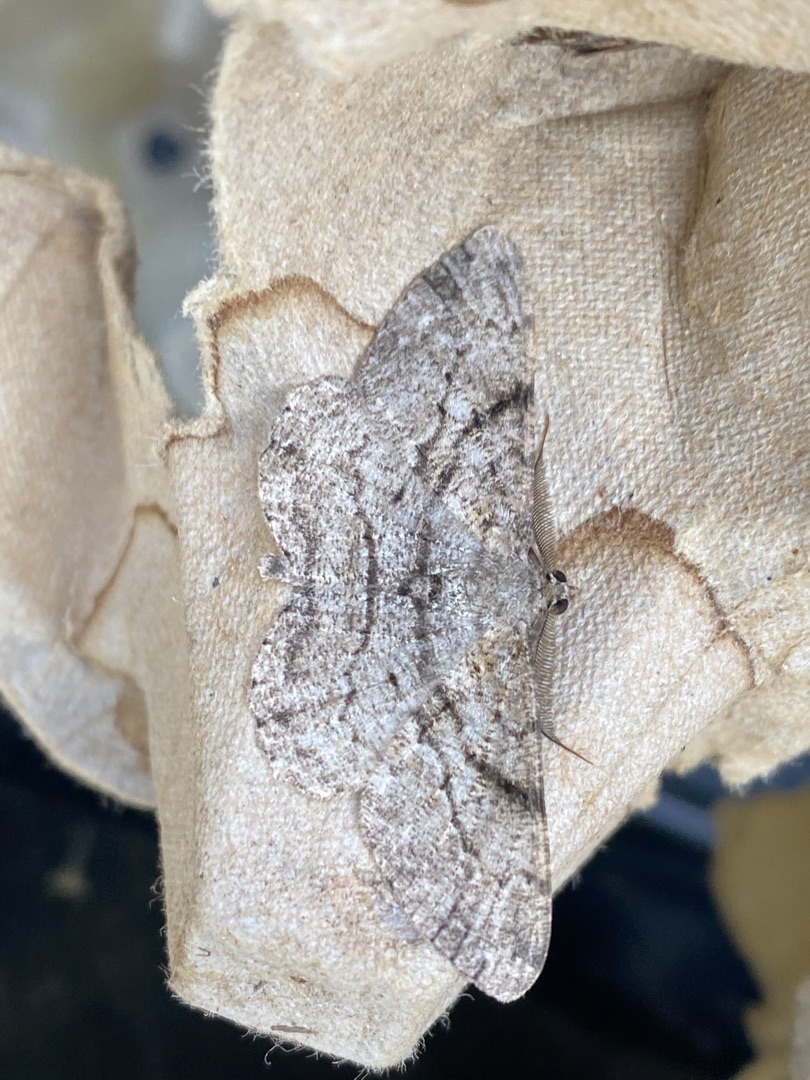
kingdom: Animalia
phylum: Arthropoda
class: Insecta
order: Lepidoptera
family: Geometridae
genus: Peribatodes
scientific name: Peribatodes rhomboidaria
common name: Frugttræ-barkmåler
